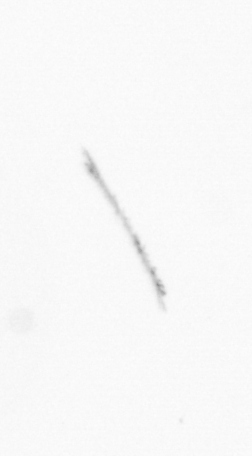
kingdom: Chromista
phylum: Ochrophyta
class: Bacillariophyceae
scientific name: Bacillariophyceae
